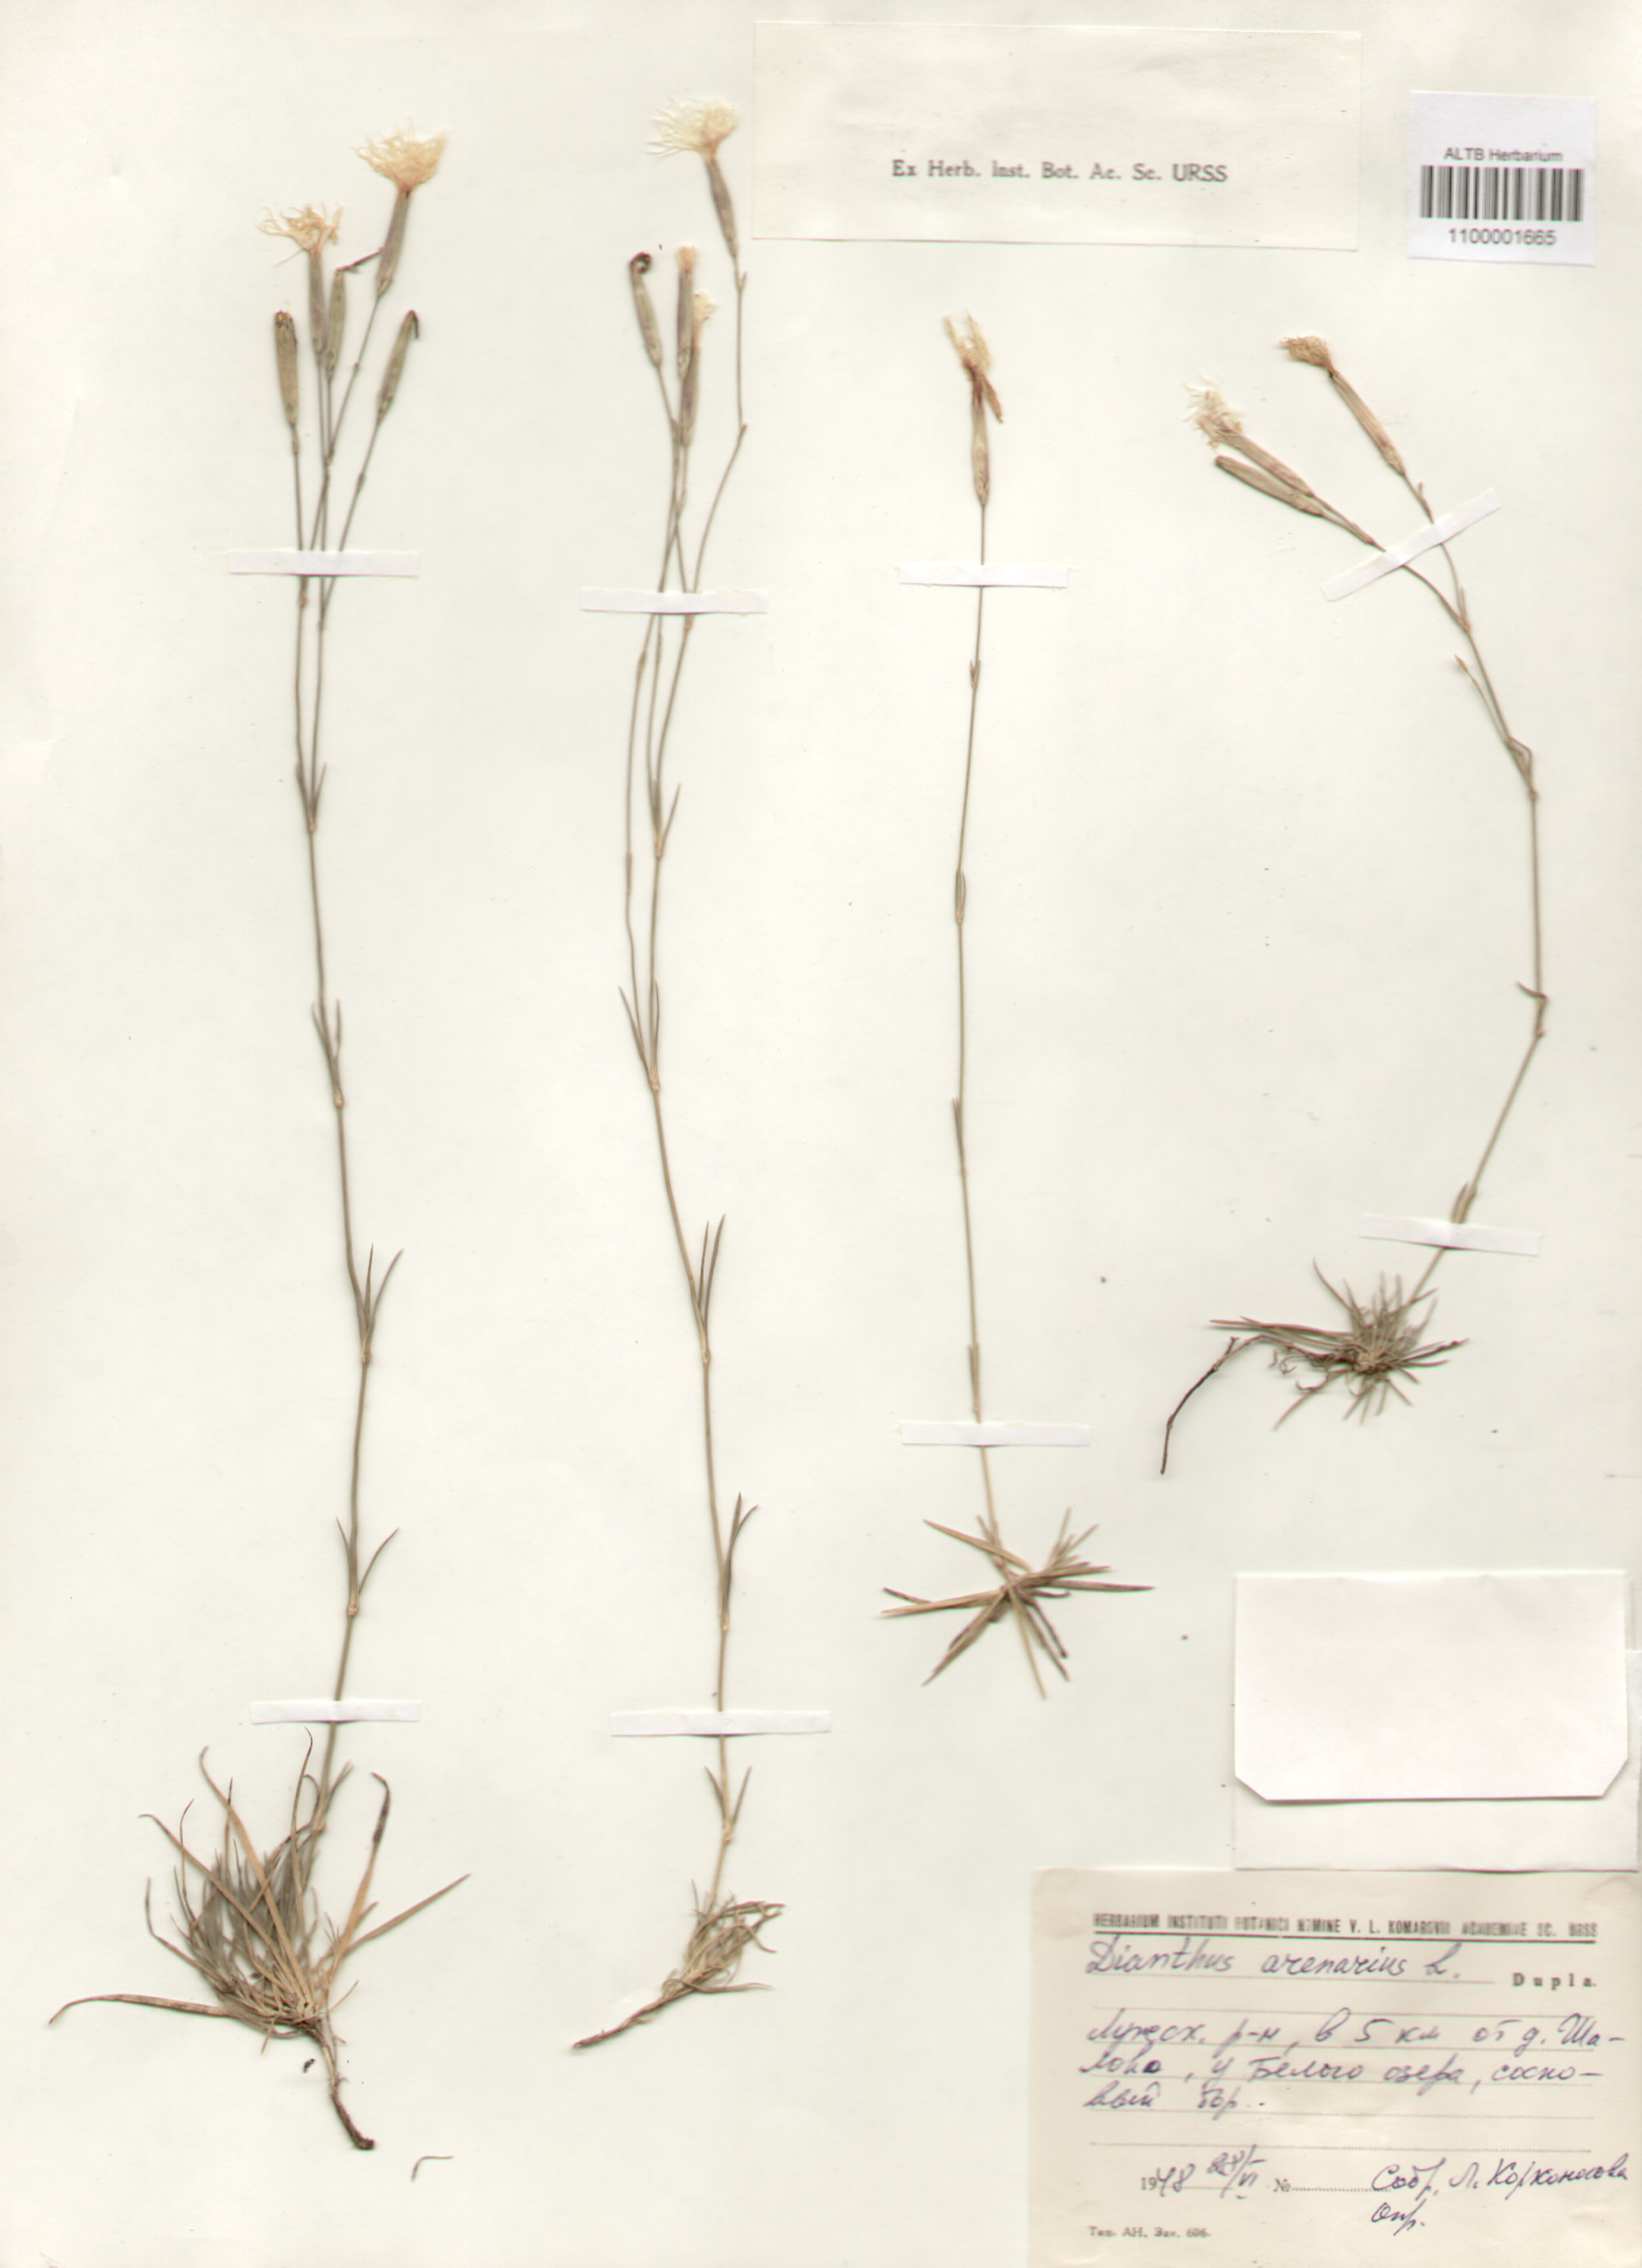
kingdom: Plantae
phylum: Tracheophyta
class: Magnoliopsida
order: Caryophyllales
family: Caryophyllaceae
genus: Dianthus
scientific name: Dianthus arenarius
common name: Stone pink
